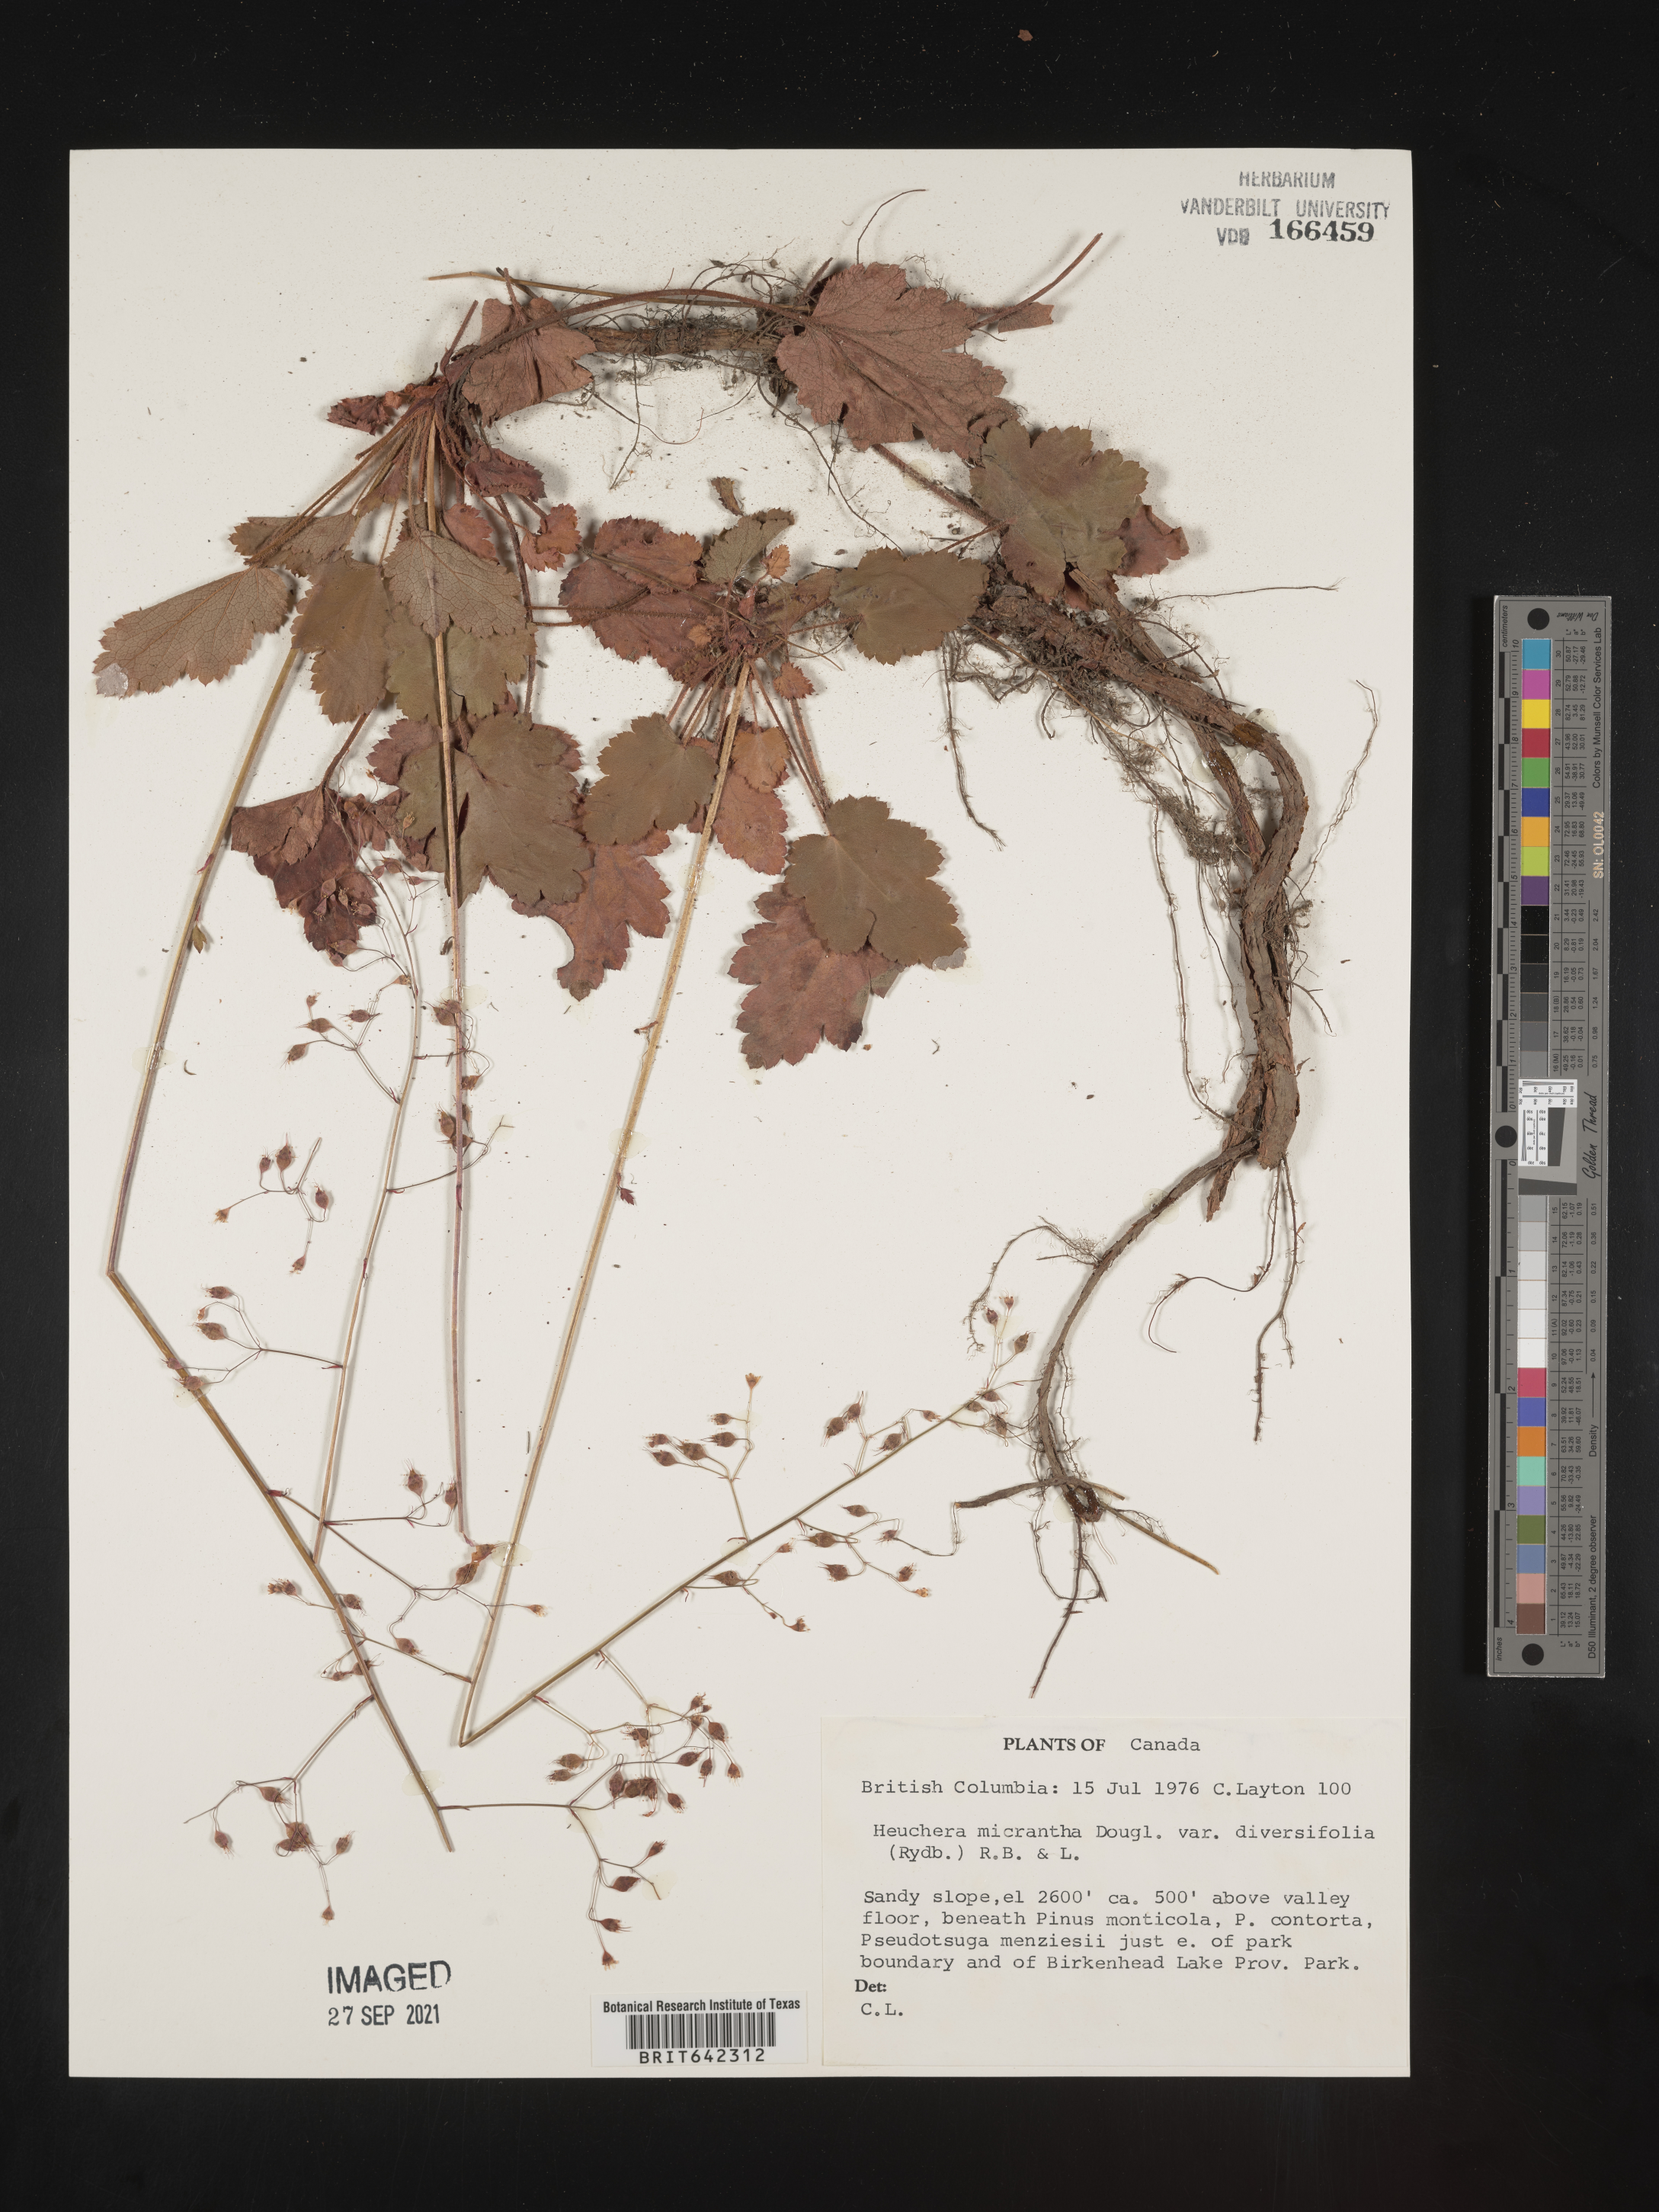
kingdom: Plantae
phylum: Tracheophyta
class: Magnoliopsida
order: Saxifragales
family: Saxifragaceae
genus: Heuchera
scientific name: Heuchera
